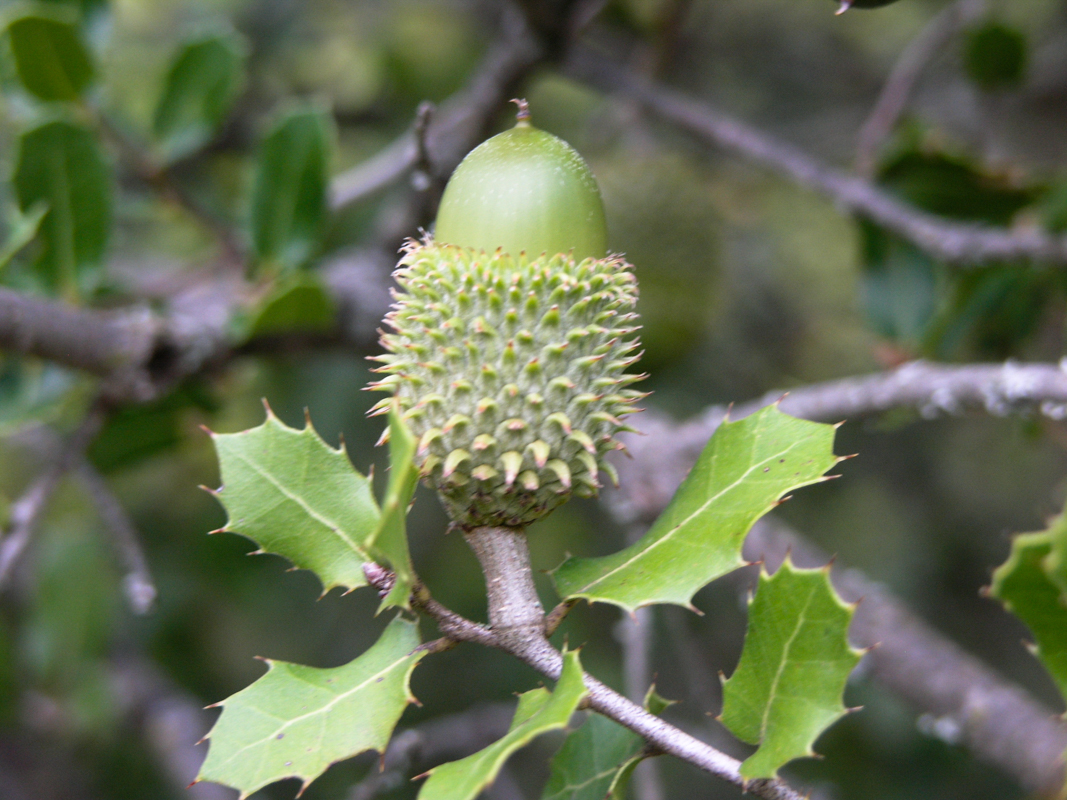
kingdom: Plantae
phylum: Tracheophyta
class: Magnoliopsida
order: Fagales
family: Fagaceae
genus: Quercus
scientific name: Quercus coccifera
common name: Kermes oak
